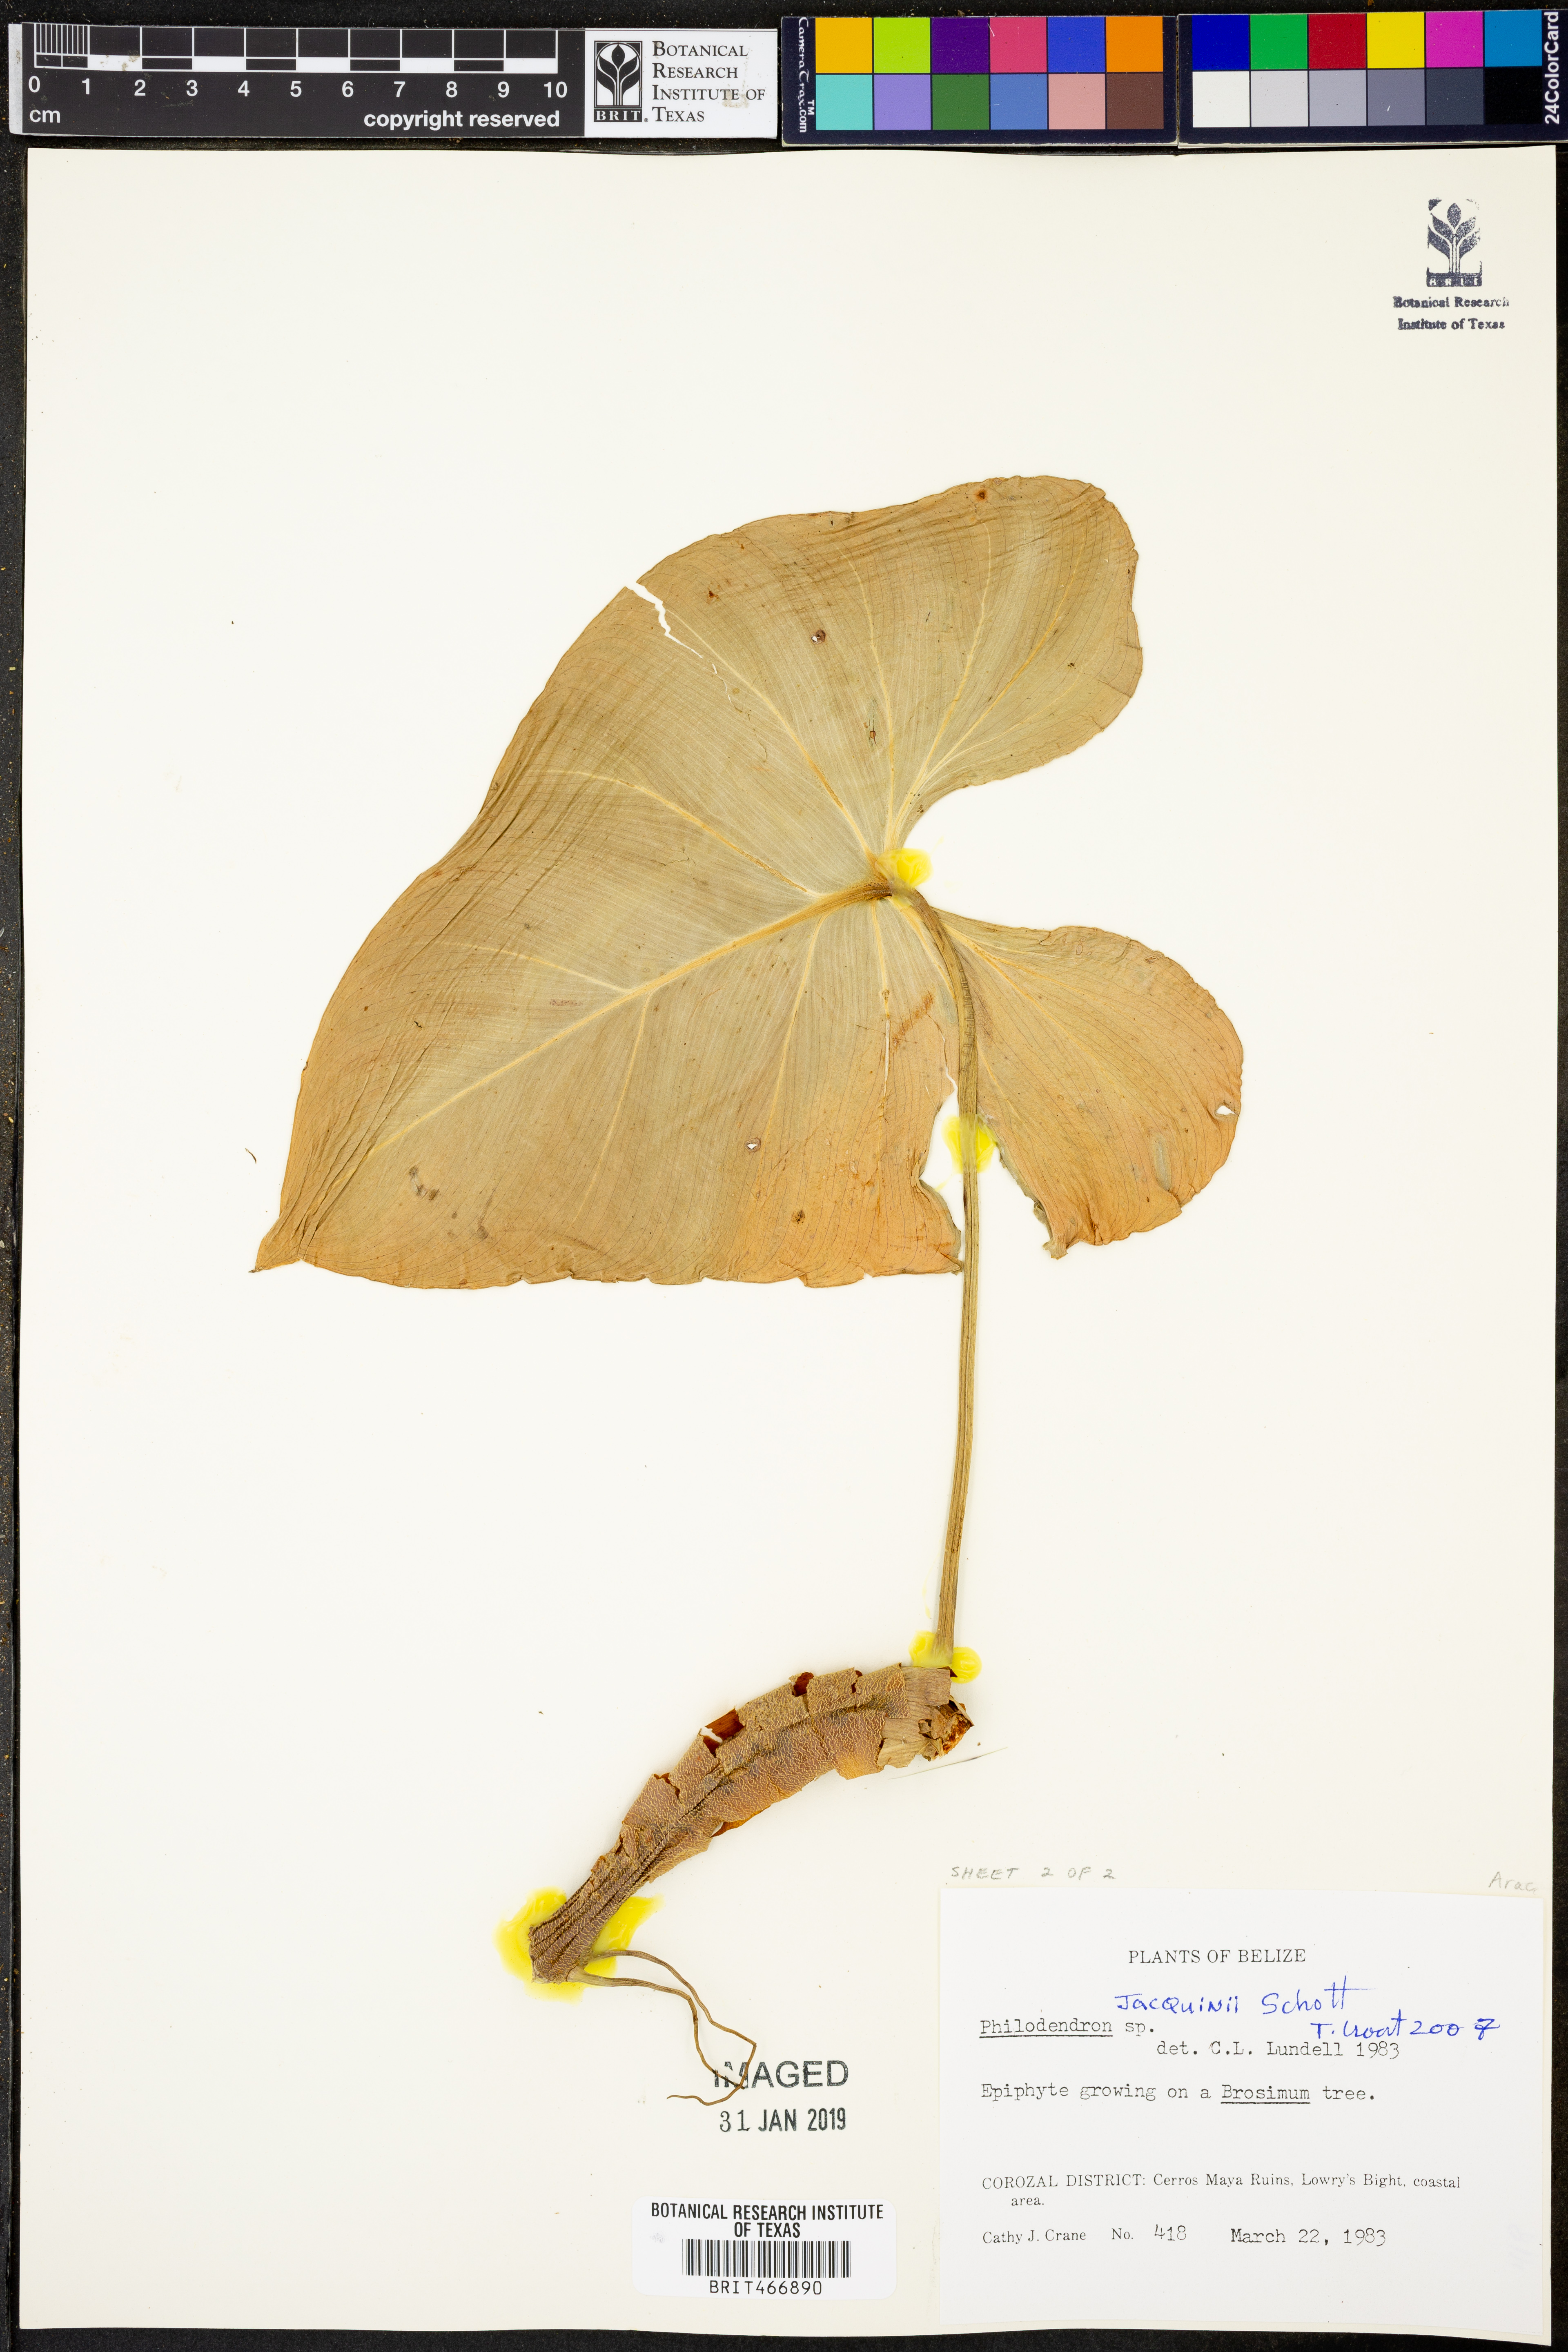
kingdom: Plantae
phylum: Tracheophyta
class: Liliopsida
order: Alismatales
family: Araceae
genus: Philodendron
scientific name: Philodendron jacquinii
